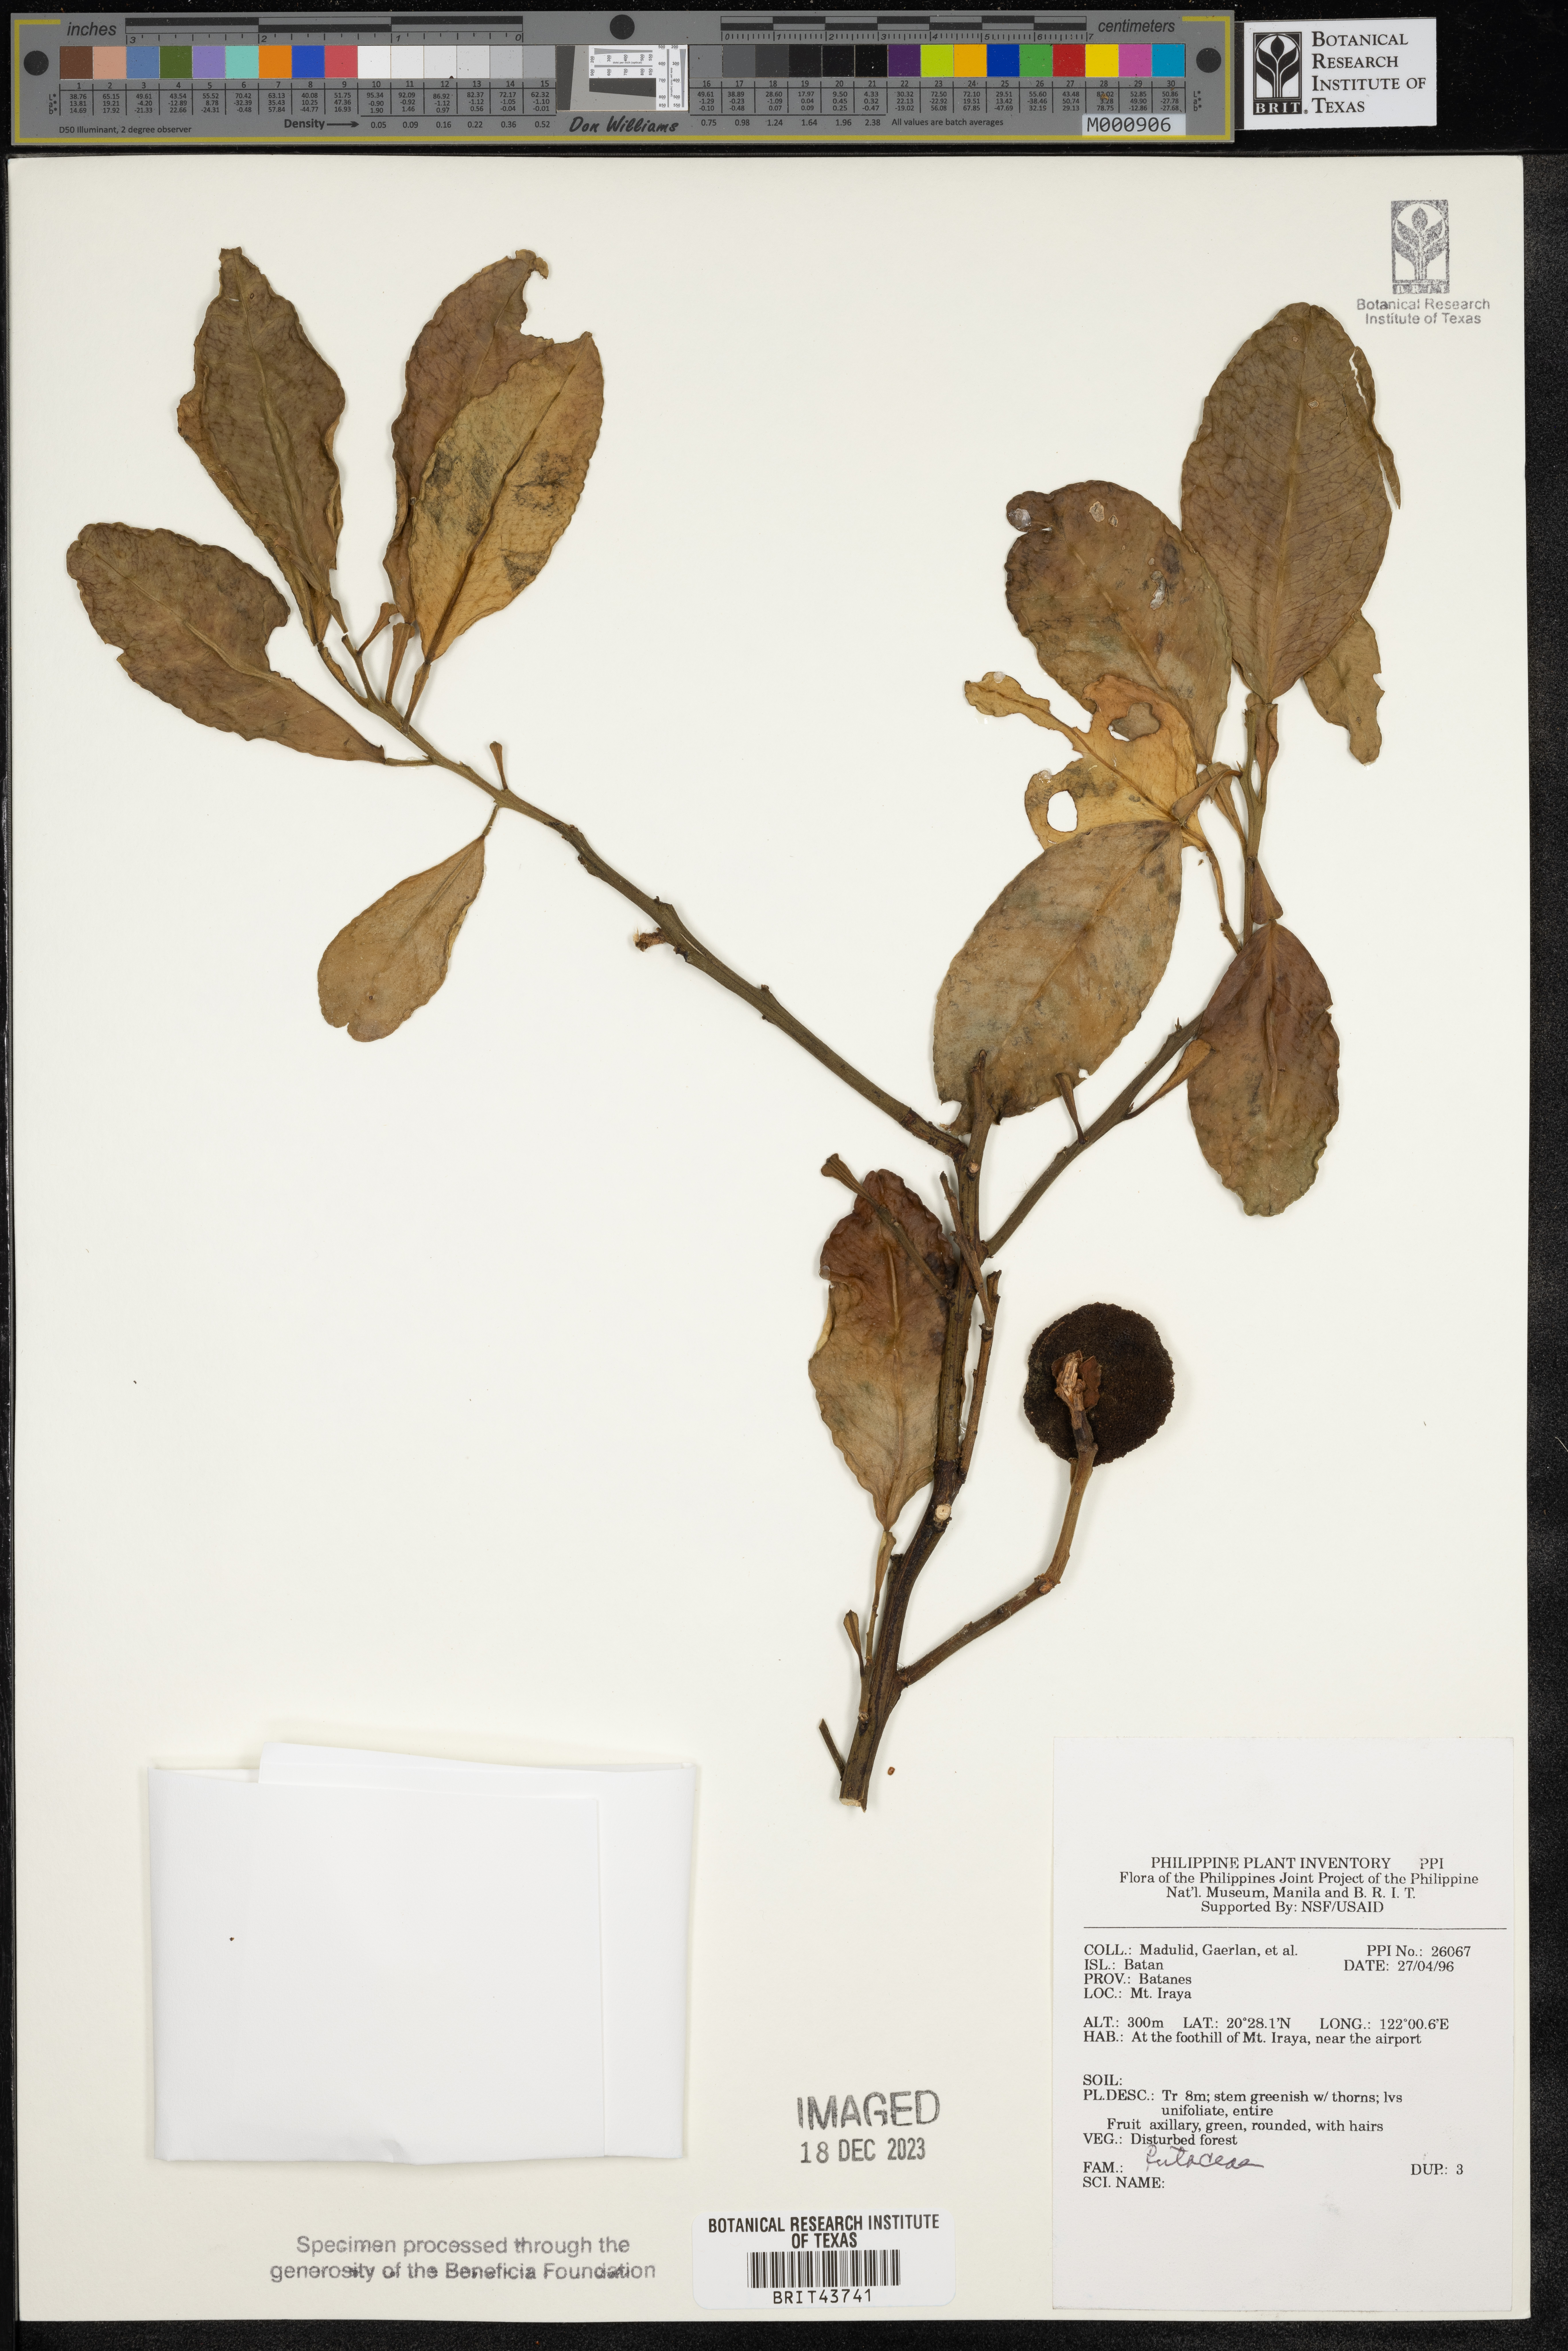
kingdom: Plantae
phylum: Tracheophyta
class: Magnoliopsida
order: Sapindales
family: Rutaceae
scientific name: Rutaceae
